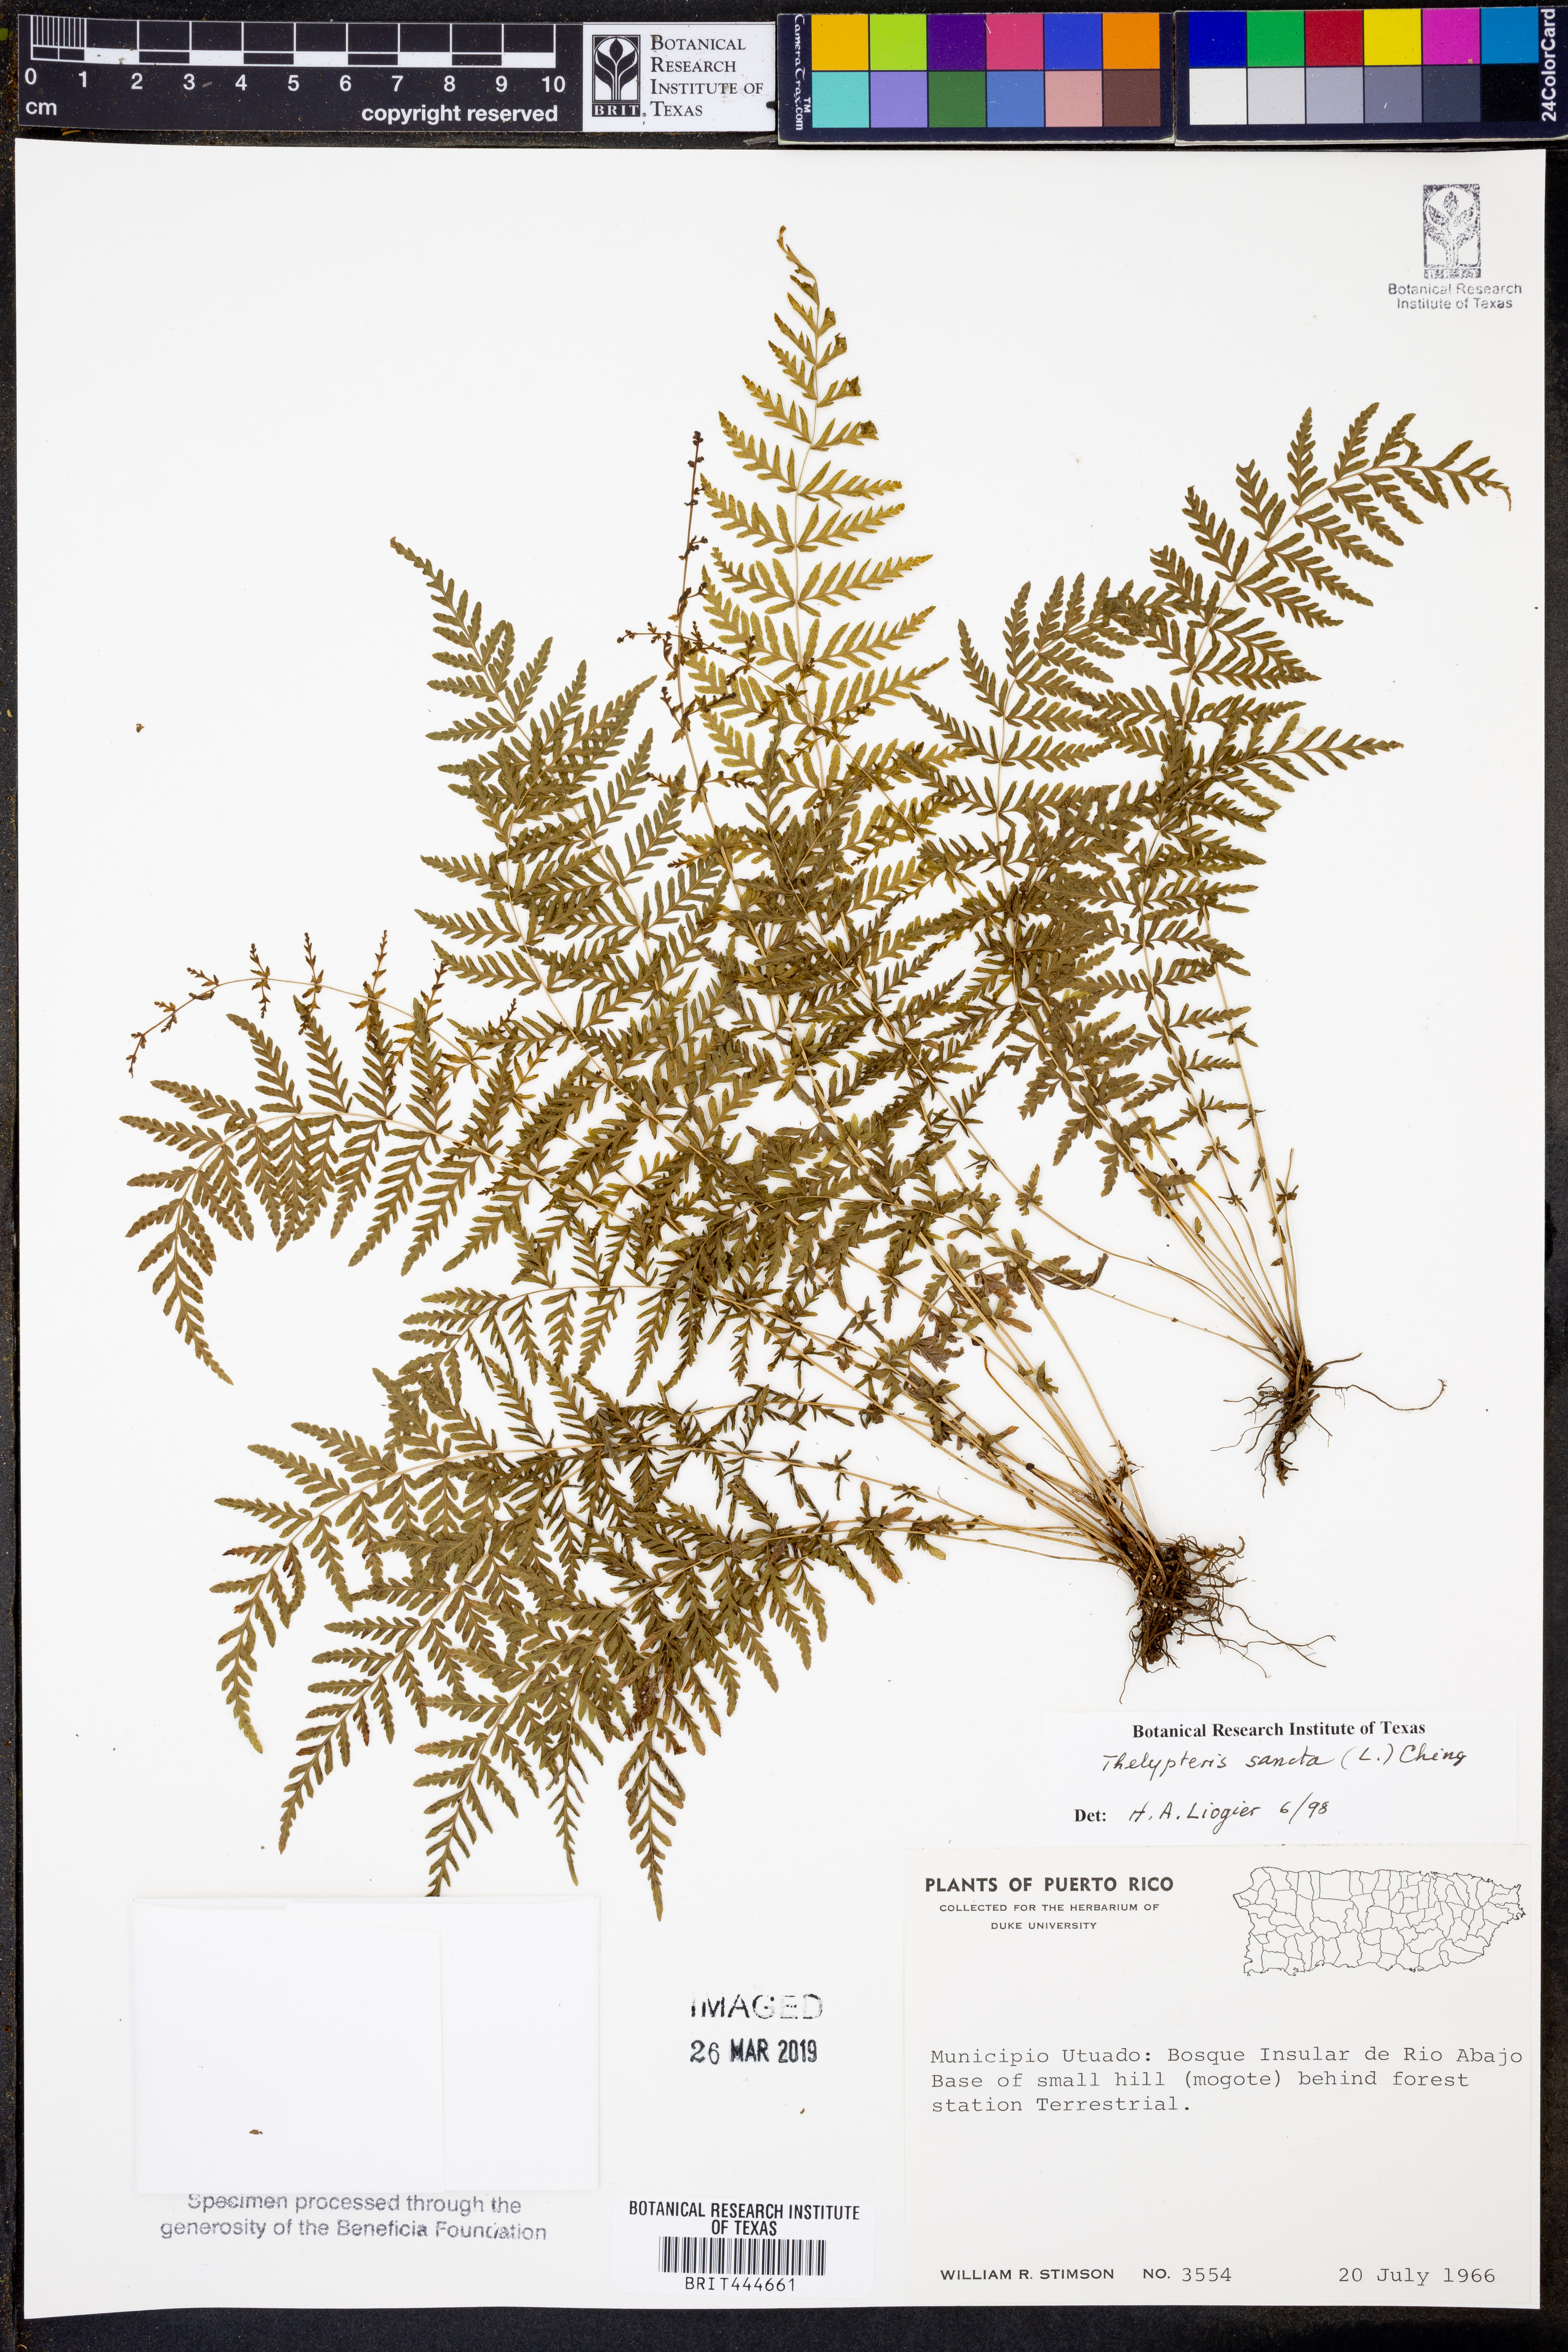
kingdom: Plantae
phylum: Tracheophyta
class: Polypodiopsida
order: Polypodiales
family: Thelypteridaceae
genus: Amauropelta
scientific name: Amauropelta cruciata
